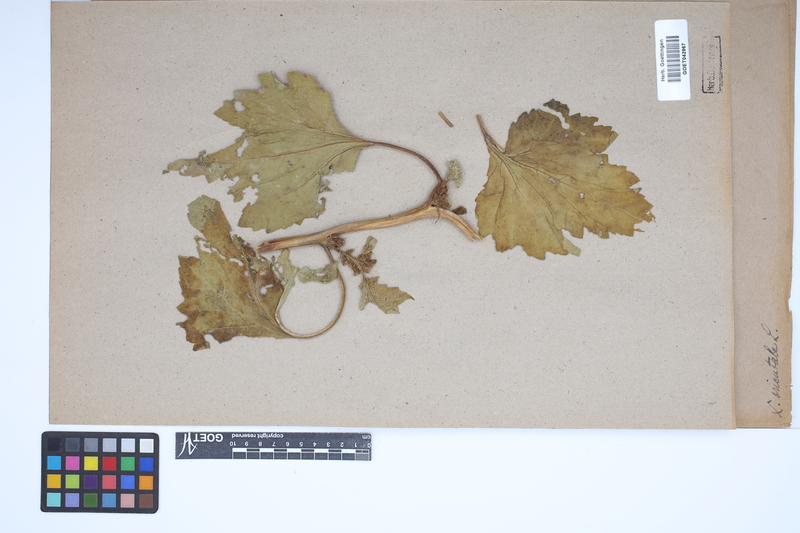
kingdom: Plantae
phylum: Tracheophyta
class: Magnoliopsida
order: Asterales
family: Asteraceae
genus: Xanthium
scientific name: Xanthium orientale
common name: Californian burr
